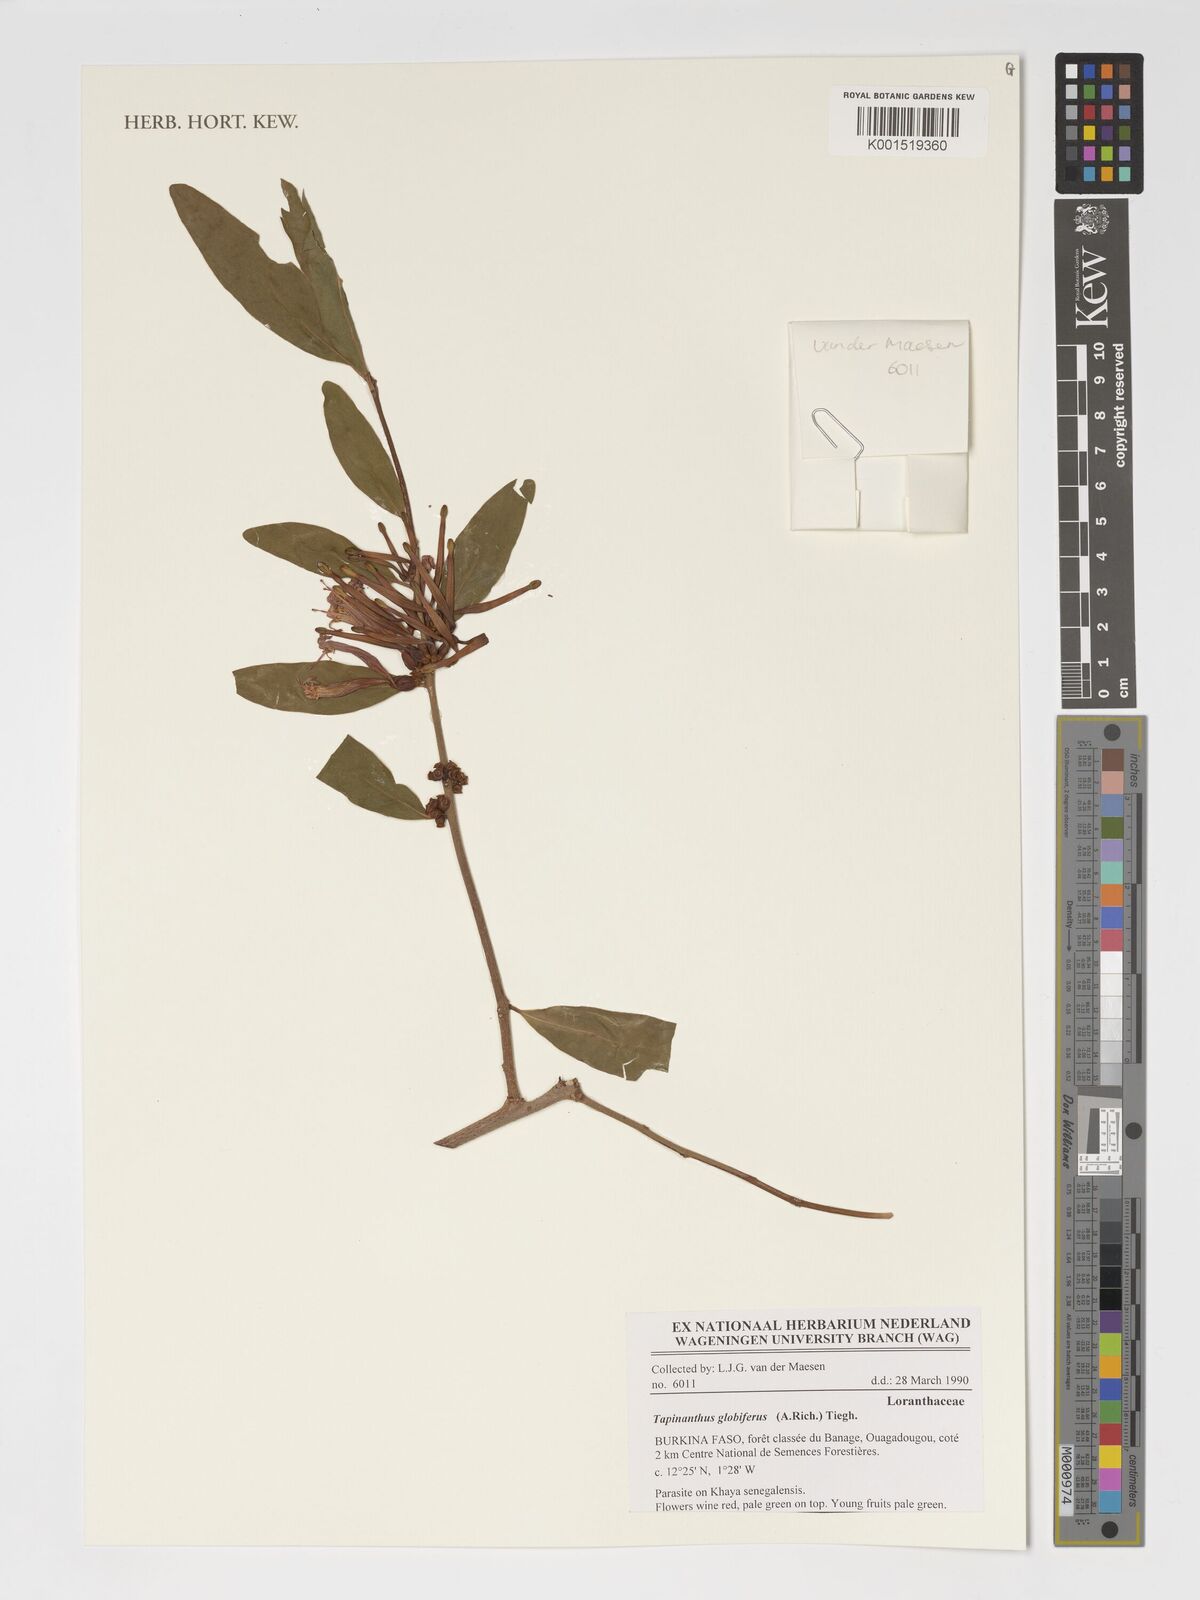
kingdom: Plantae
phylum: Tracheophyta
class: Magnoliopsida
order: Santalales
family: Loranthaceae
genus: Tapinanthus
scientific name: Tapinanthus
